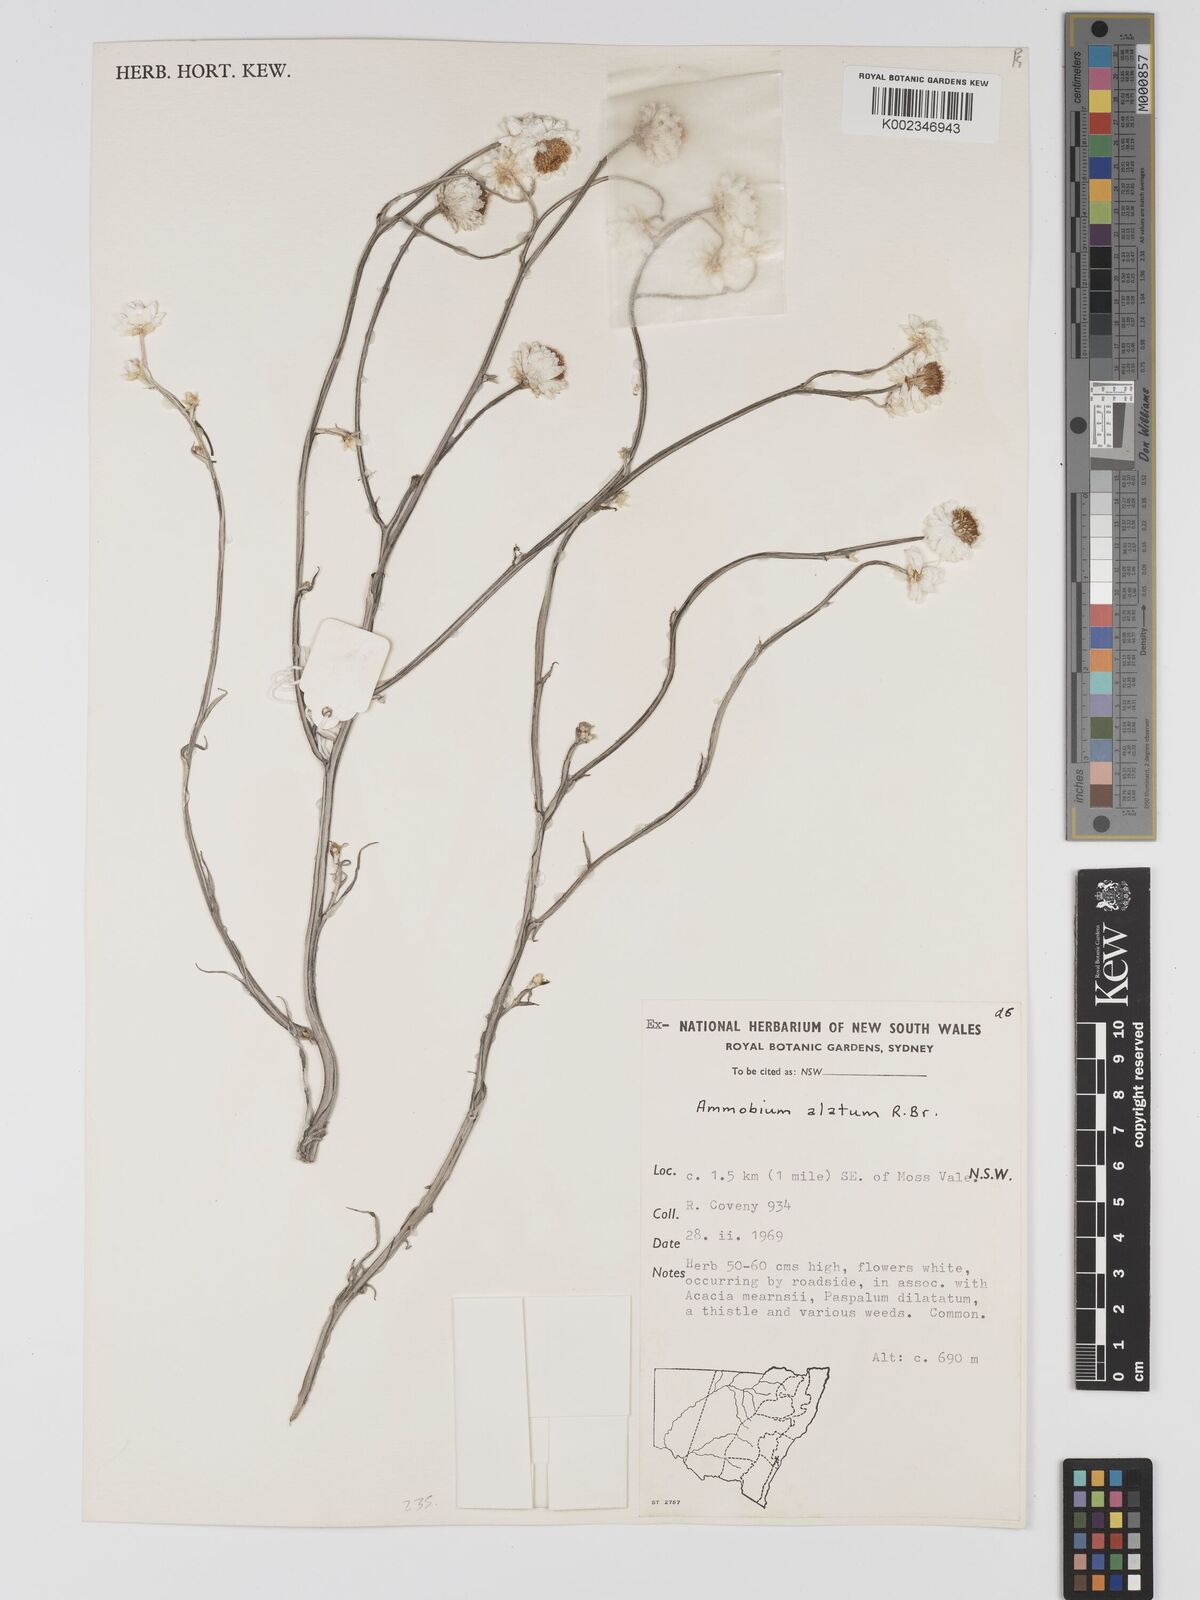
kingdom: Plantae
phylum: Tracheophyta
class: Magnoliopsida
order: Asterales
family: Asteraceae
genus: Ammobium
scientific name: Ammobium alatum
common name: Winged everlasting
